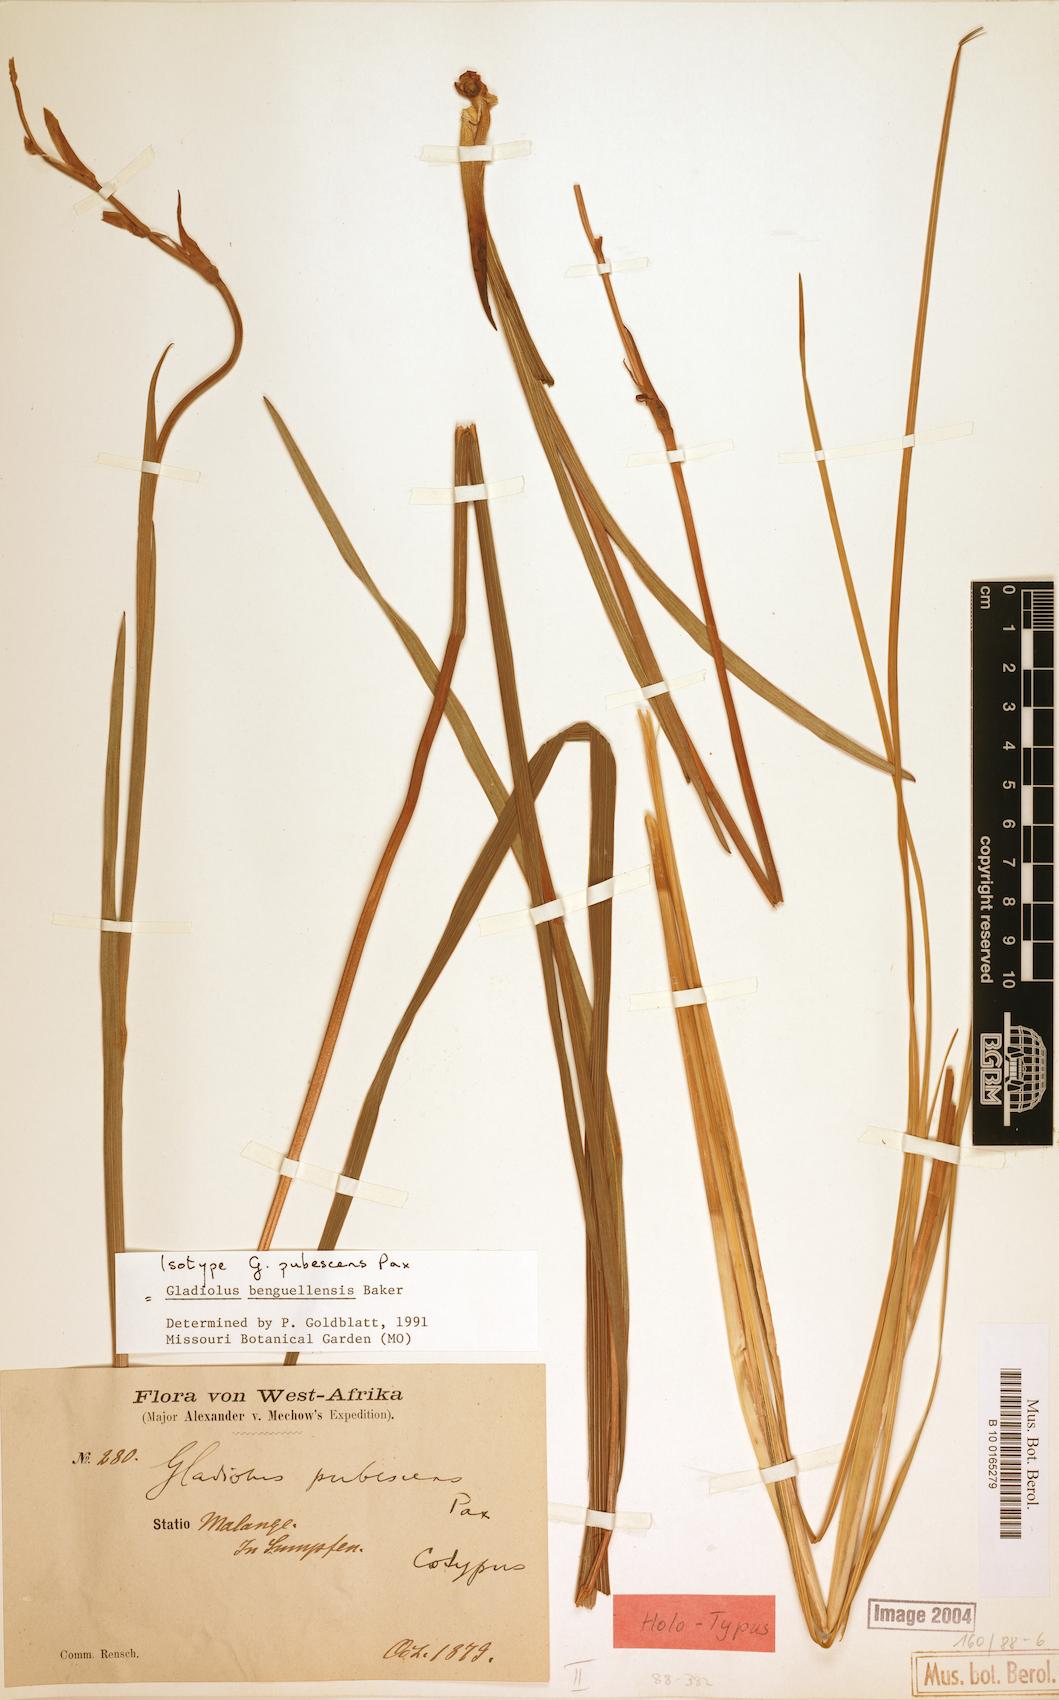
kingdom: Plantae
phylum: Tracheophyta
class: Liliopsida
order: Asparagales
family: Iridaceae
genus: Gladiolus
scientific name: Gladiolus benguellensis
